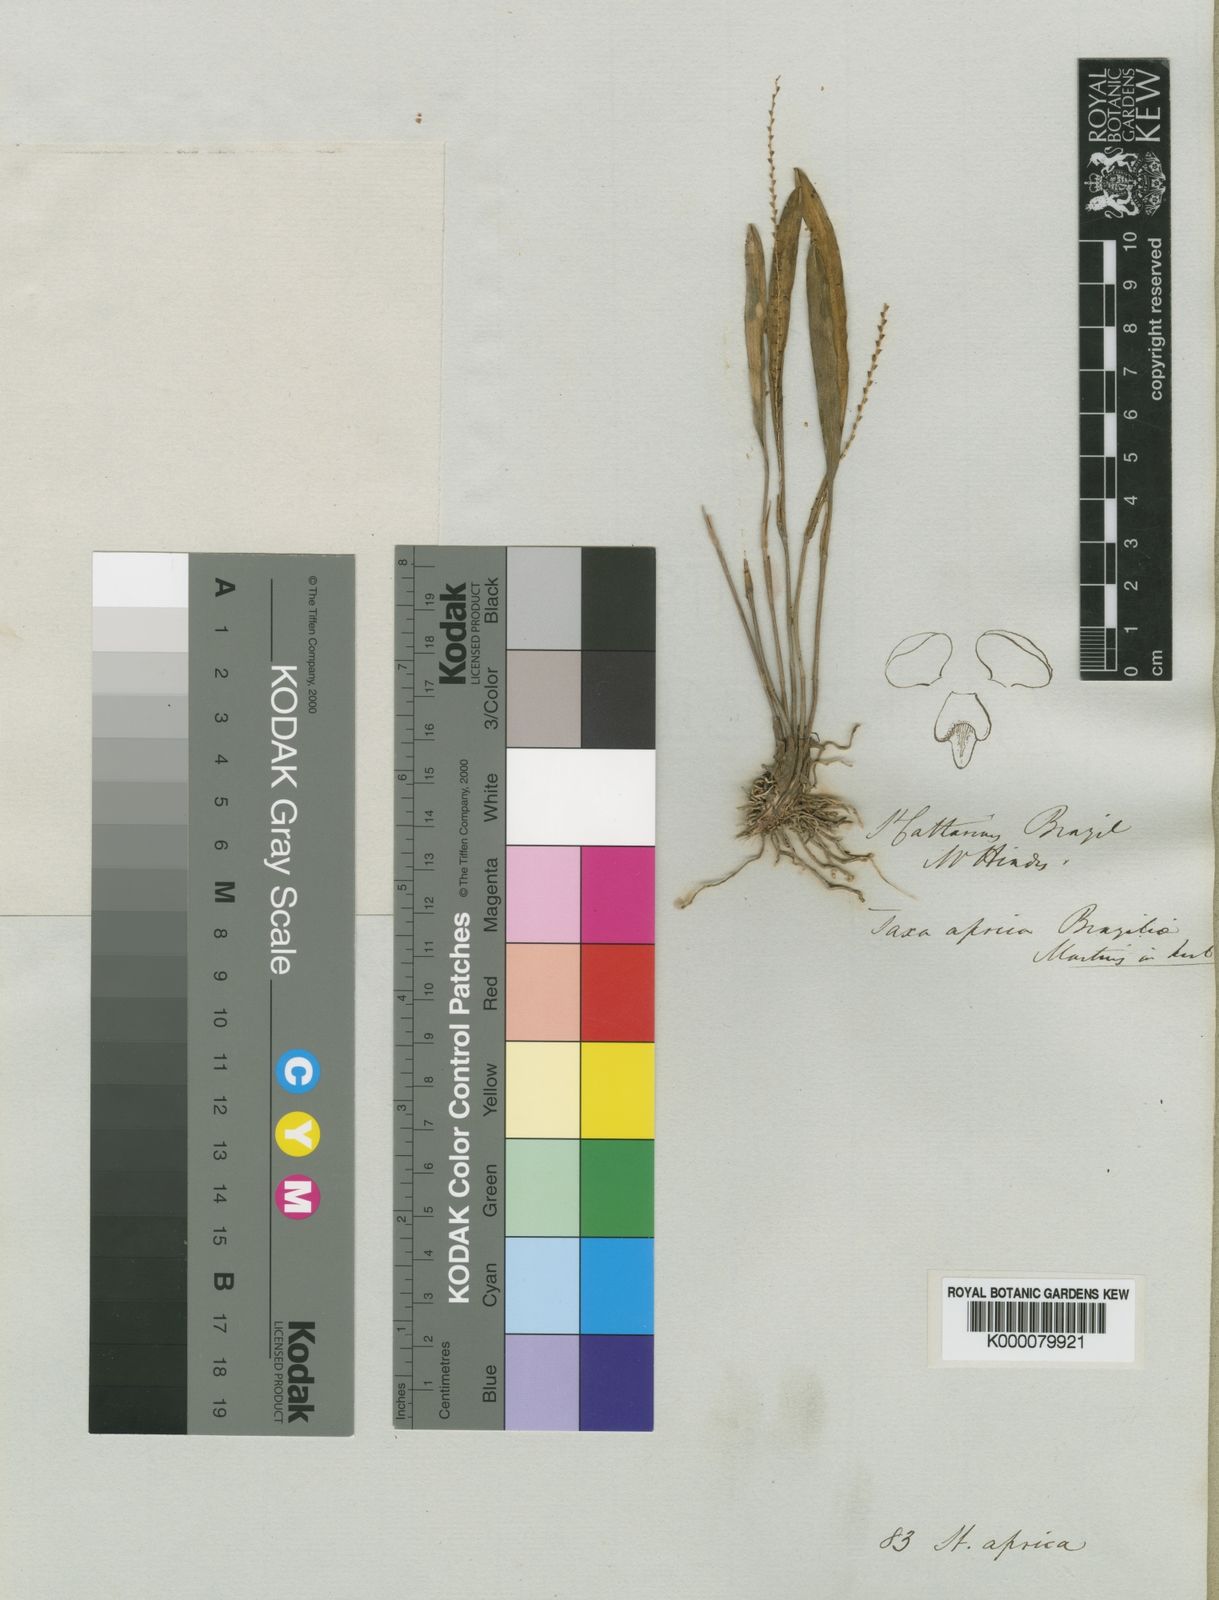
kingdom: Plantae
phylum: Tracheophyta
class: Liliopsida
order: Asparagales
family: Orchidaceae
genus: Stelis
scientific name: Stelis aprica
